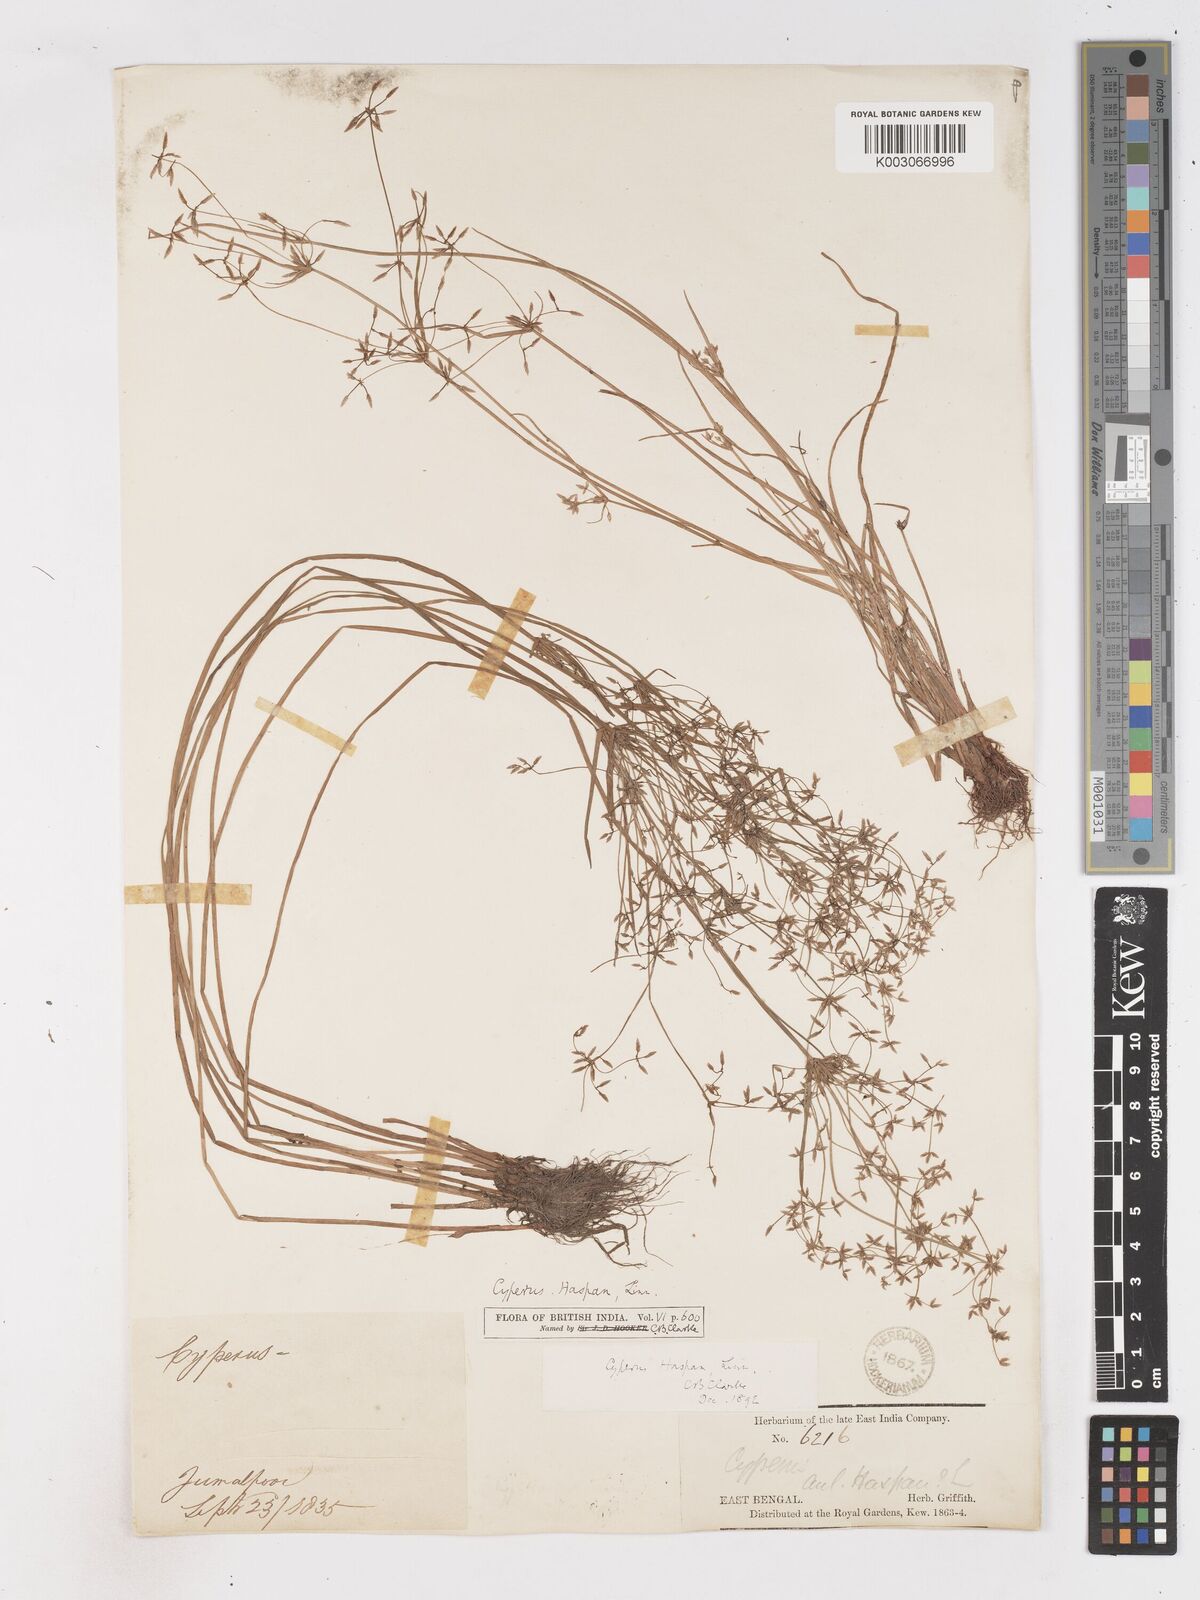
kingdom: Plantae
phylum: Tracheophyta
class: Liliopsida
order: Poales
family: Cyperaceae
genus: Cyperus
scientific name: Cyperus haspan
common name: Haspan flatsedge
